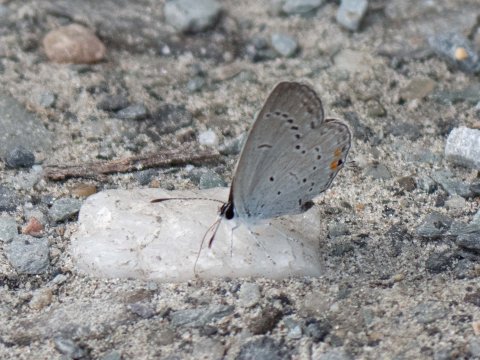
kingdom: Animalia
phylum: Arthropoda
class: Insecta
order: Lepidoptera
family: Lycaenidae
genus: Elkalyce
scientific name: Elkalyce comyntas
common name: Eastern Tailed-Blue
